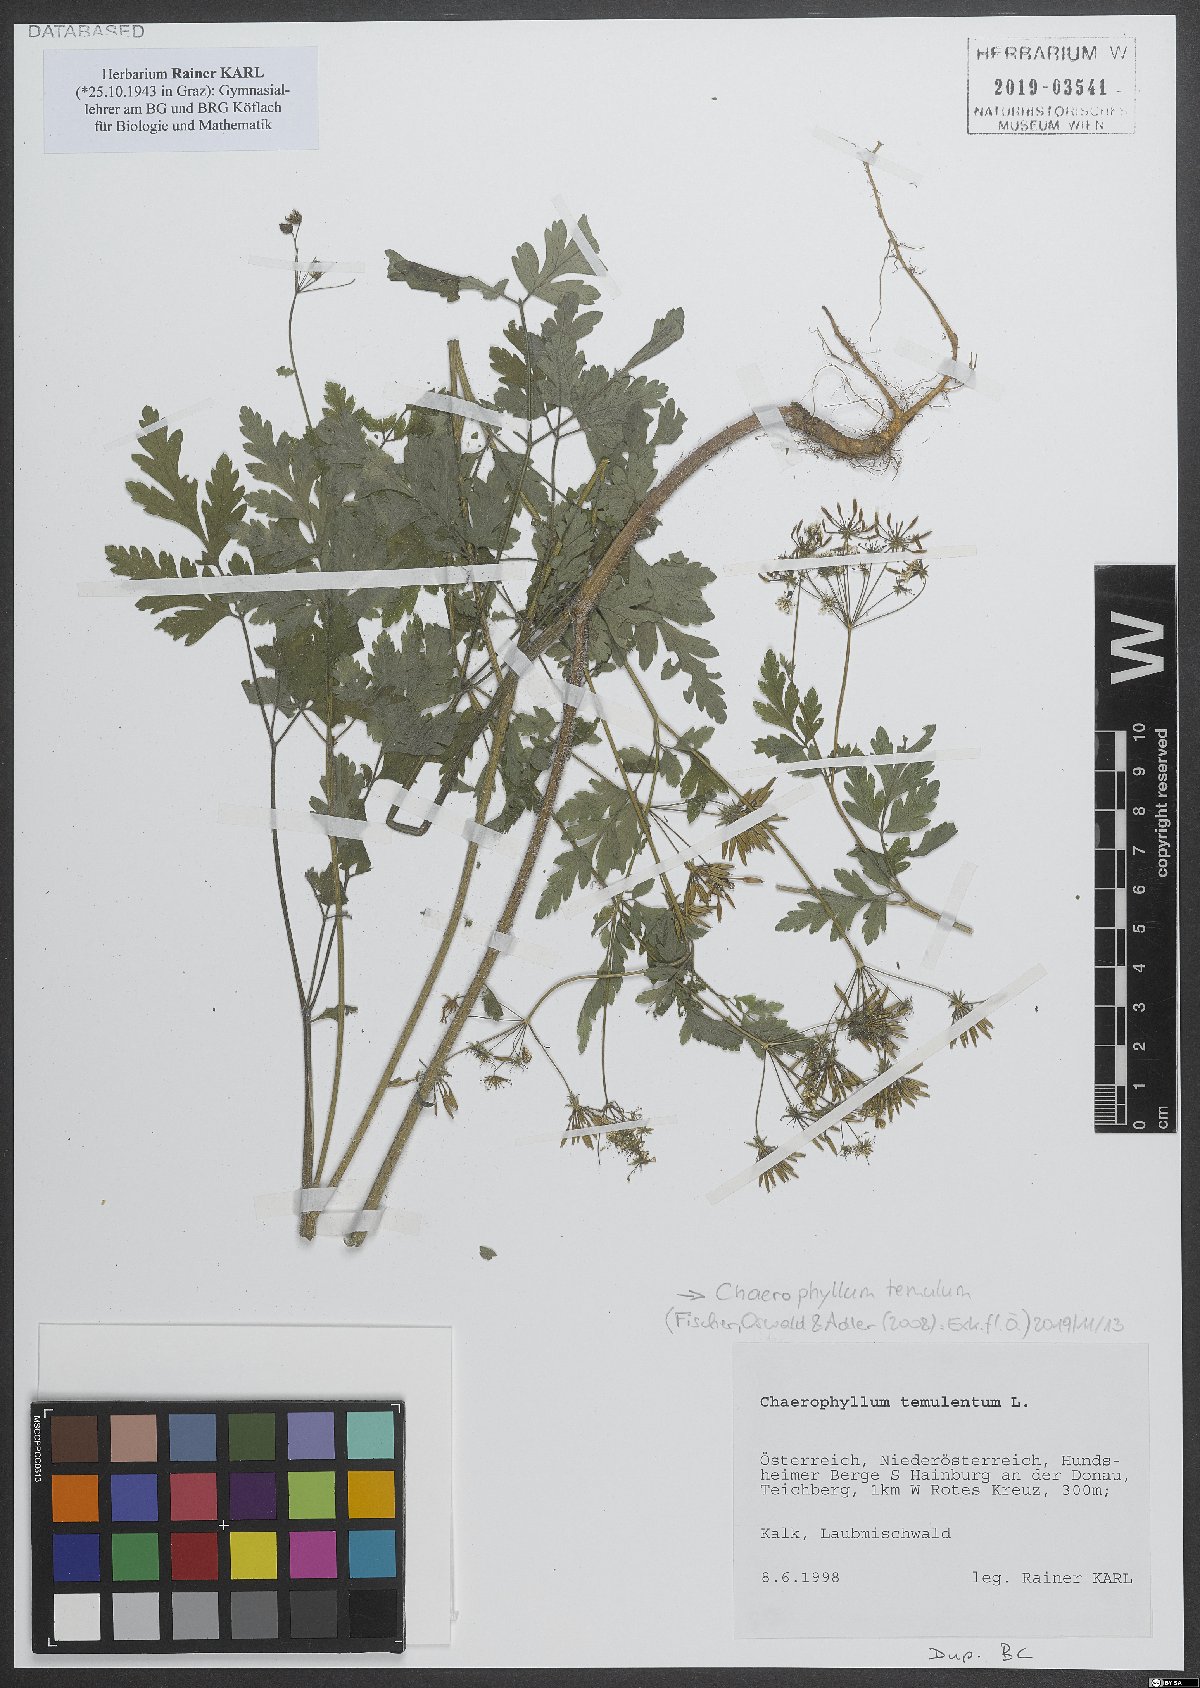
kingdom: Plantae
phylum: Tracheophyta
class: Magnoliopsida
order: Apiales
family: Apiaceae
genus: Chaerophyllum
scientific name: Chaerophyllum temulum
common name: Rough chervil
